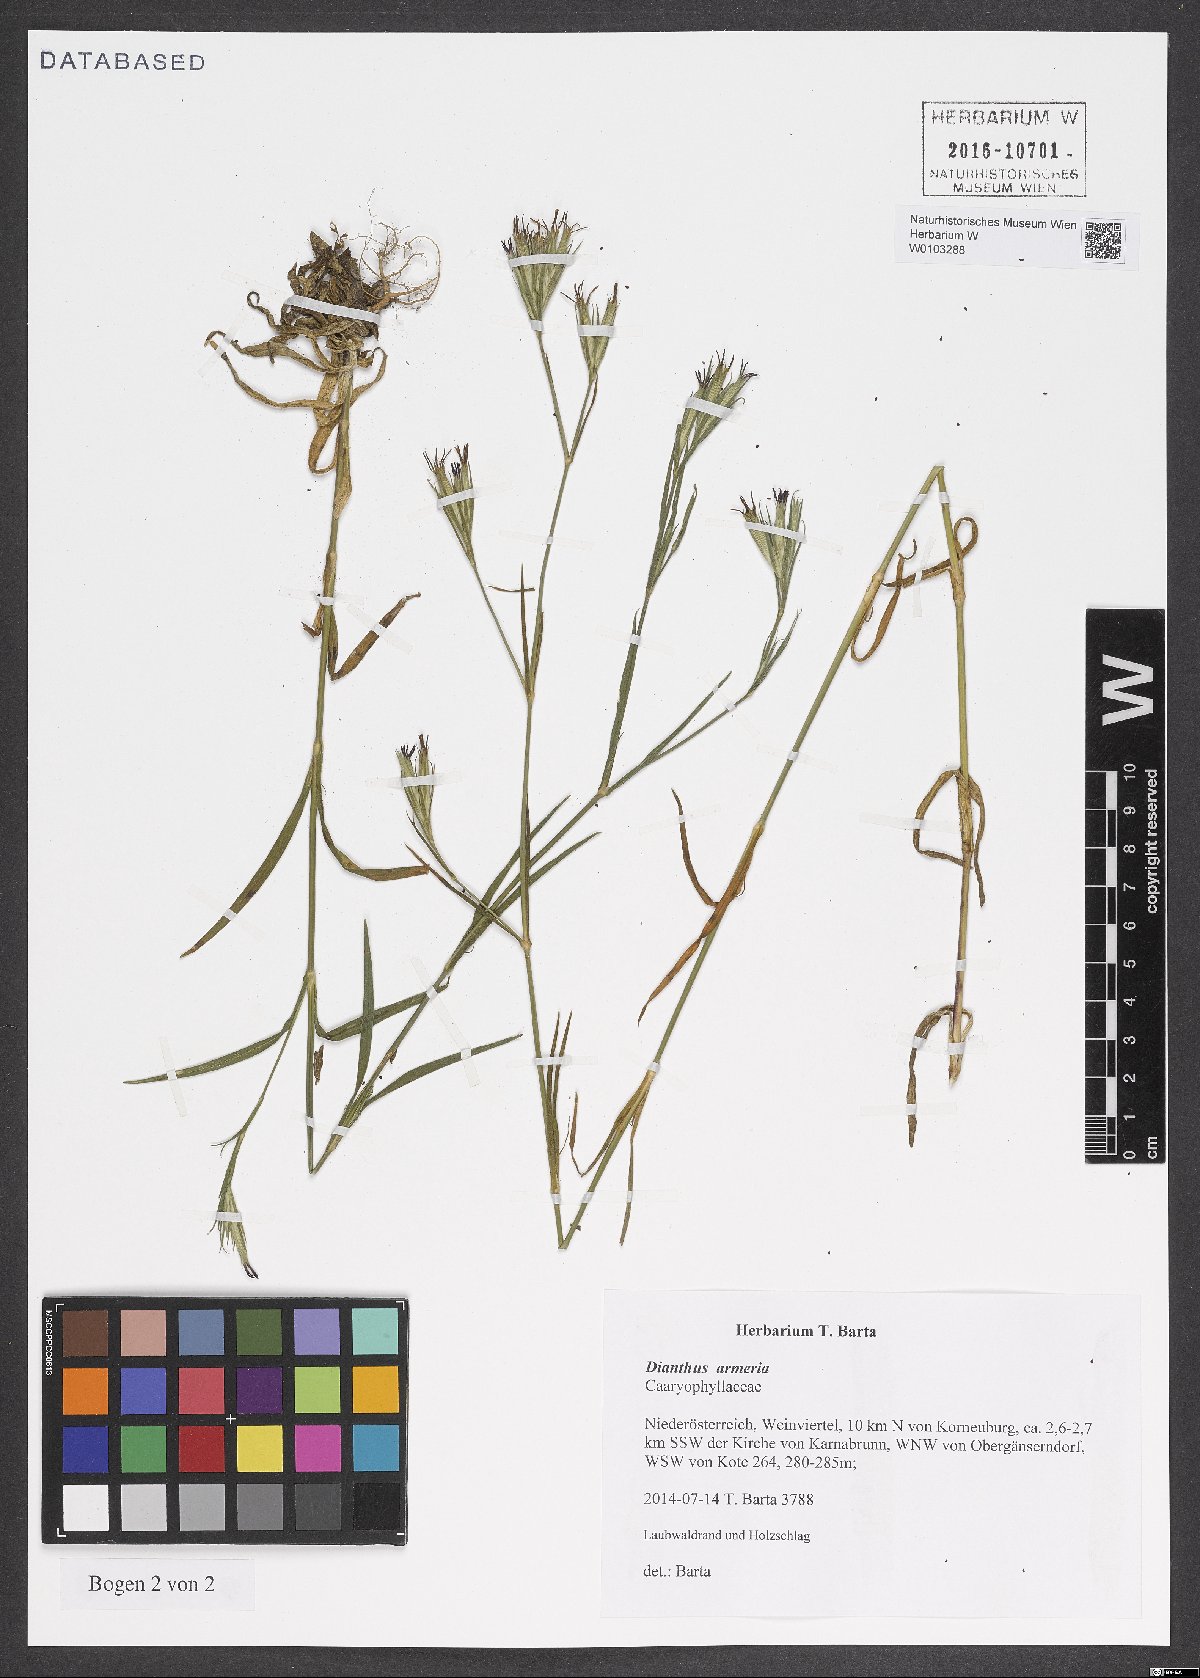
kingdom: Plantae
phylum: Tracheophyta
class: Magnoliopsida
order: Caryophyllales
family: Caryophyllaceae
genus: Dianthus
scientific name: Dianthus armeria
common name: Deptford pink
